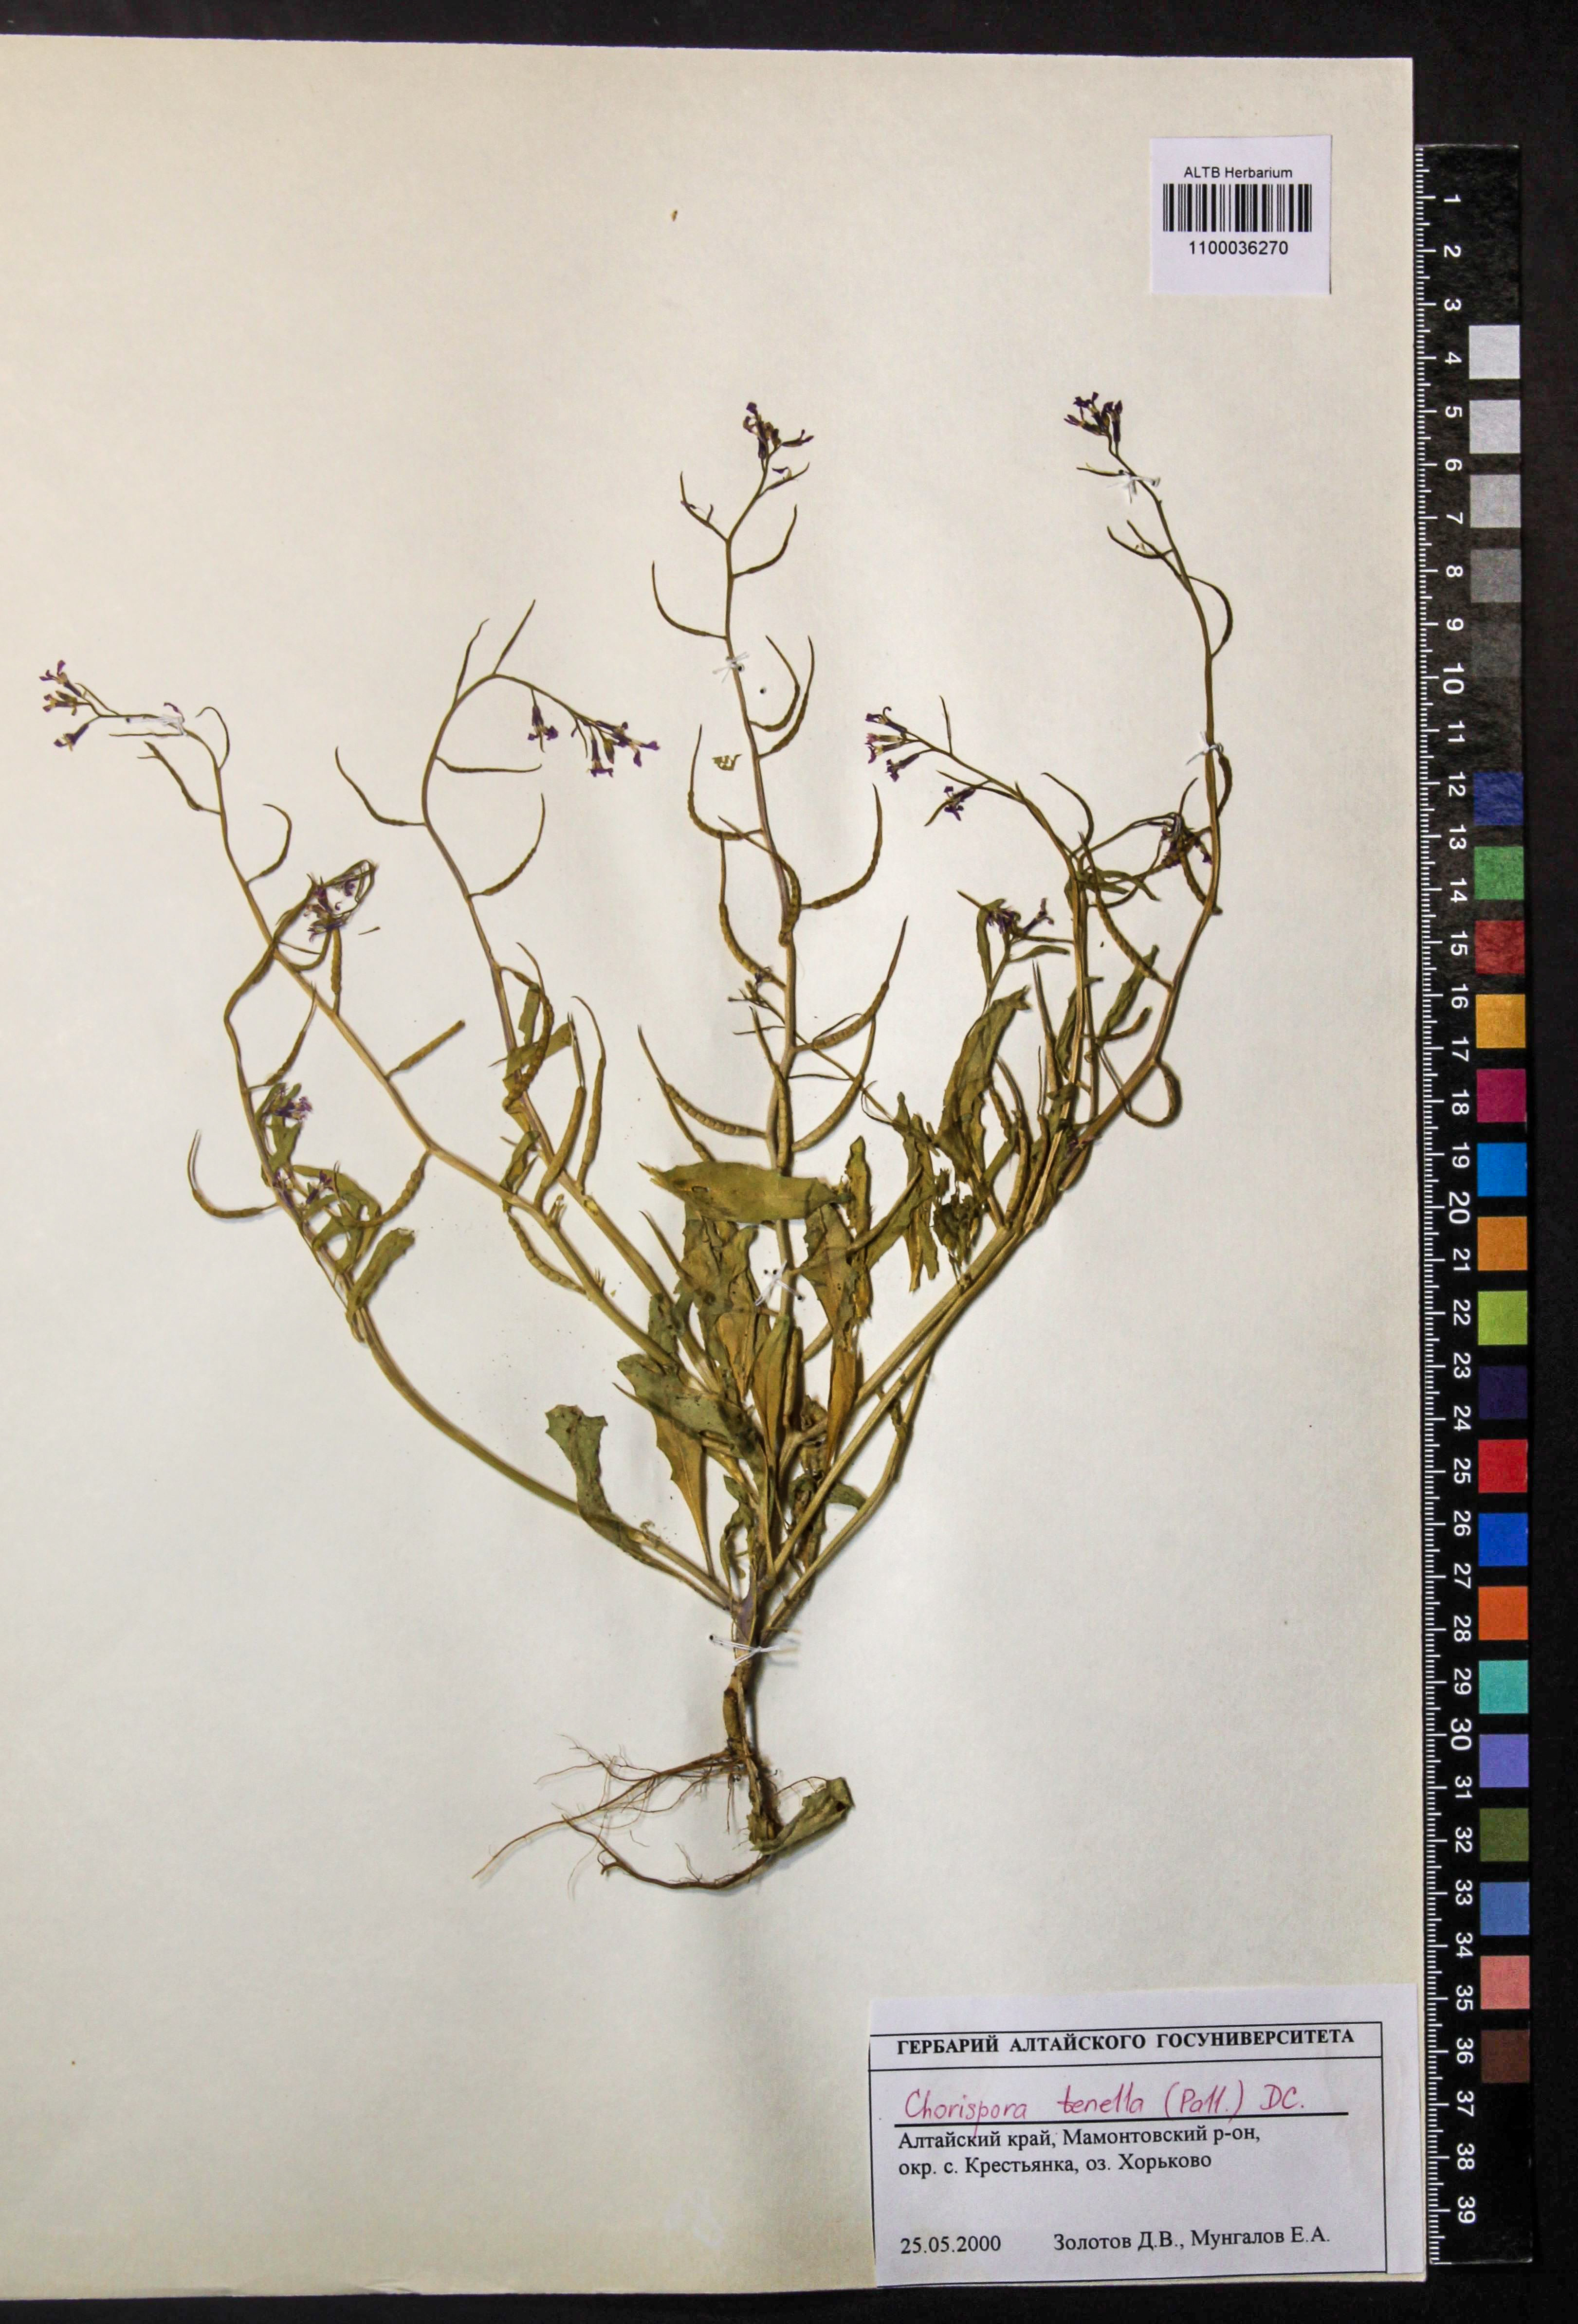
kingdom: Plantae
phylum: Tracheophyta
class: Magnoliopsida
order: Brassicales
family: Brassicaceae
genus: Chorispora
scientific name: Chorispora tenella
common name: Crossflower
